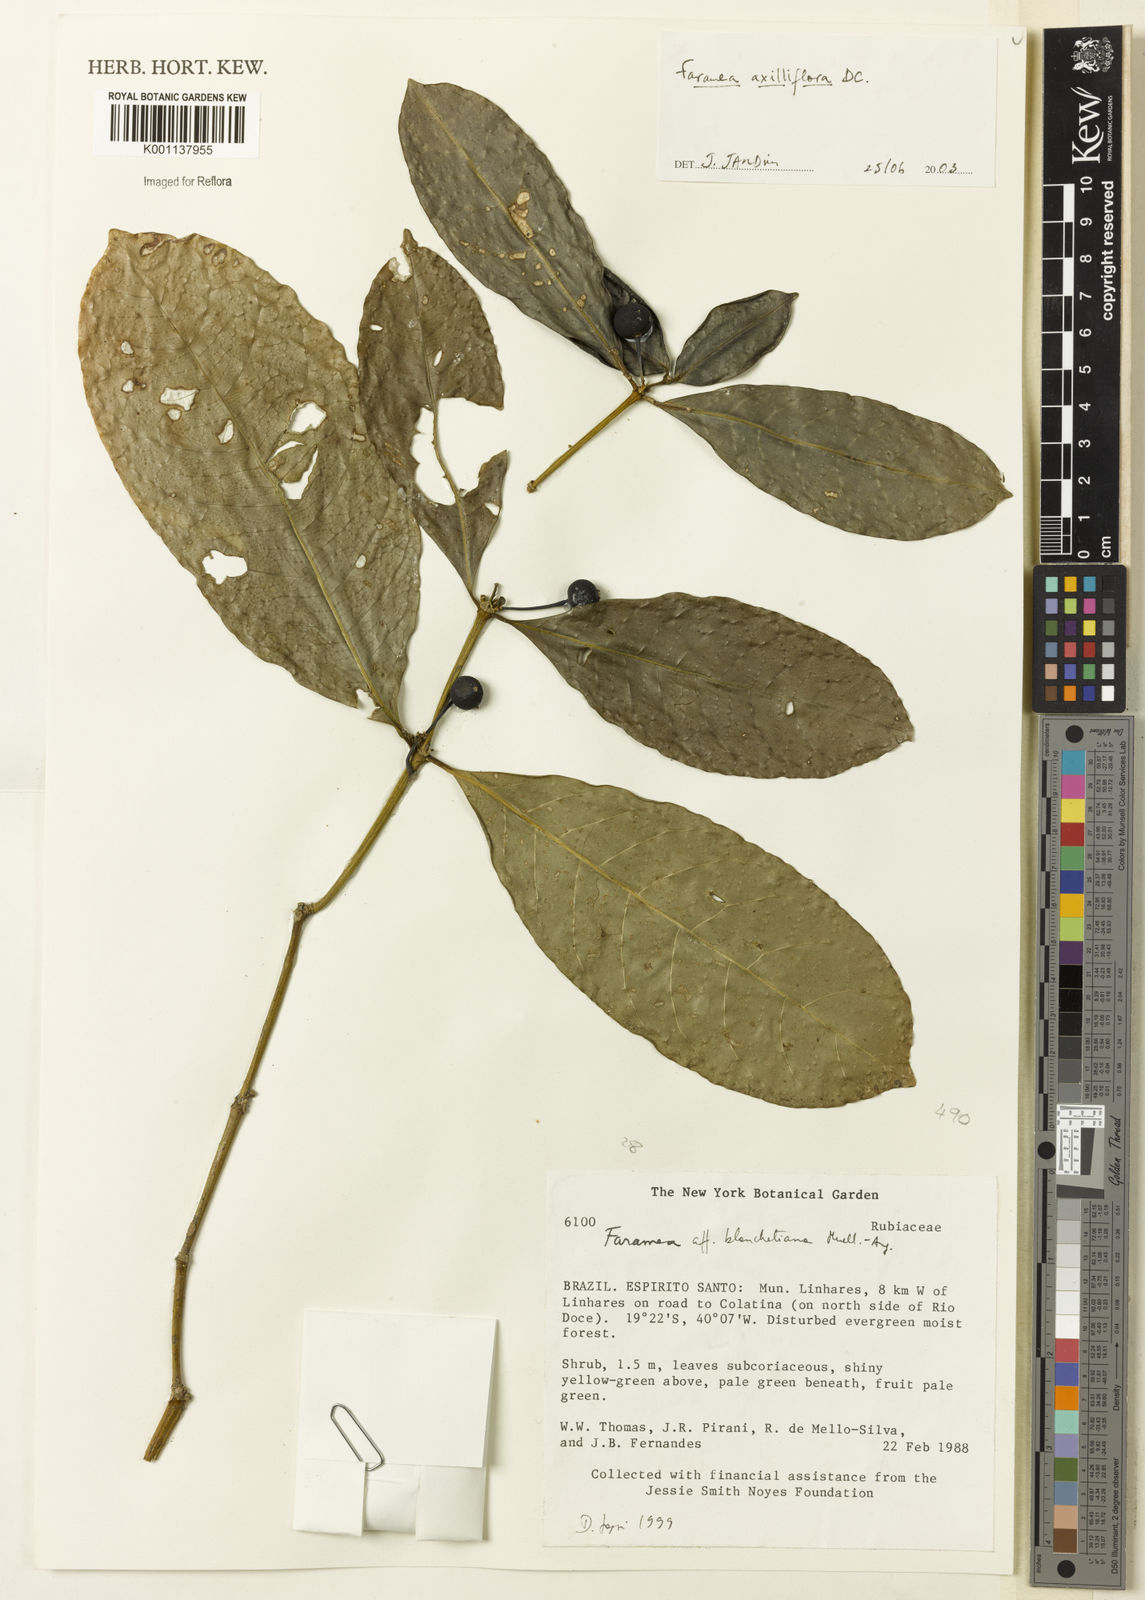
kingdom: Plantae
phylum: Tracheophyta
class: Magnoliopsida
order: Gentianales
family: Rubiaceae
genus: Faramea
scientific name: Faramea axilliflora
